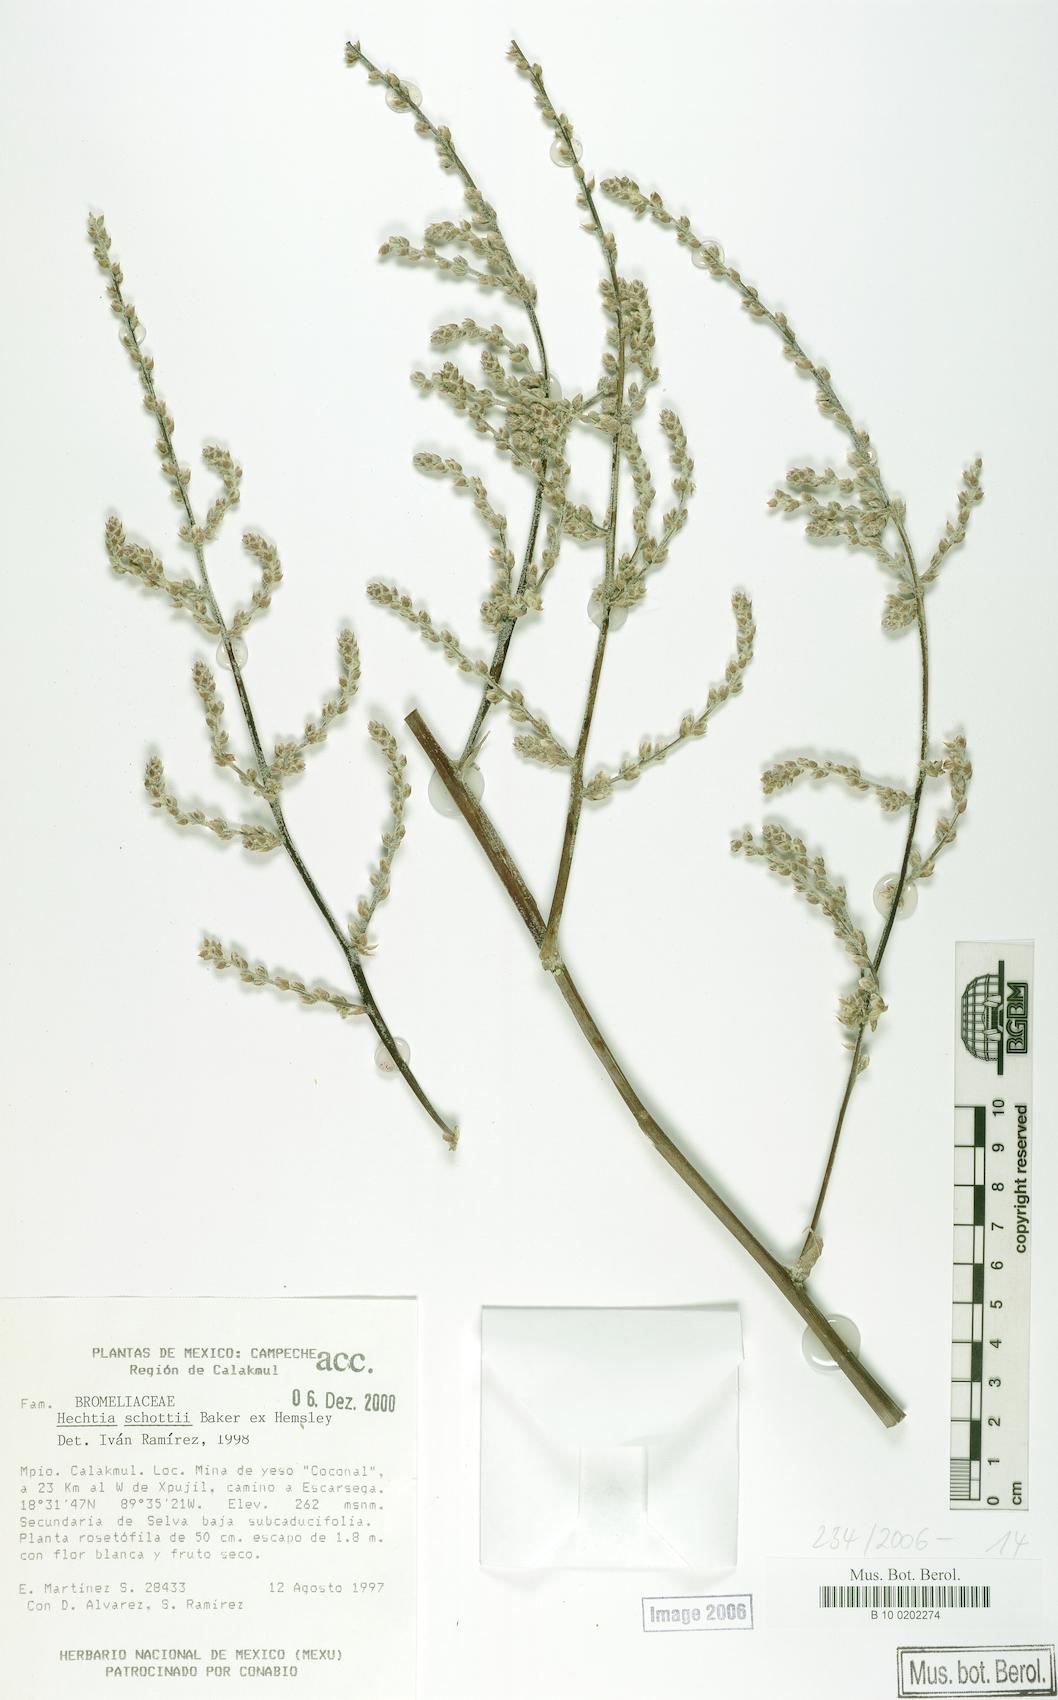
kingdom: Plantae
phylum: Tracheophyta
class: Liliopsida
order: Poales
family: Bromeliaceae
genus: Hechtia
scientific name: Hechtia schottii
